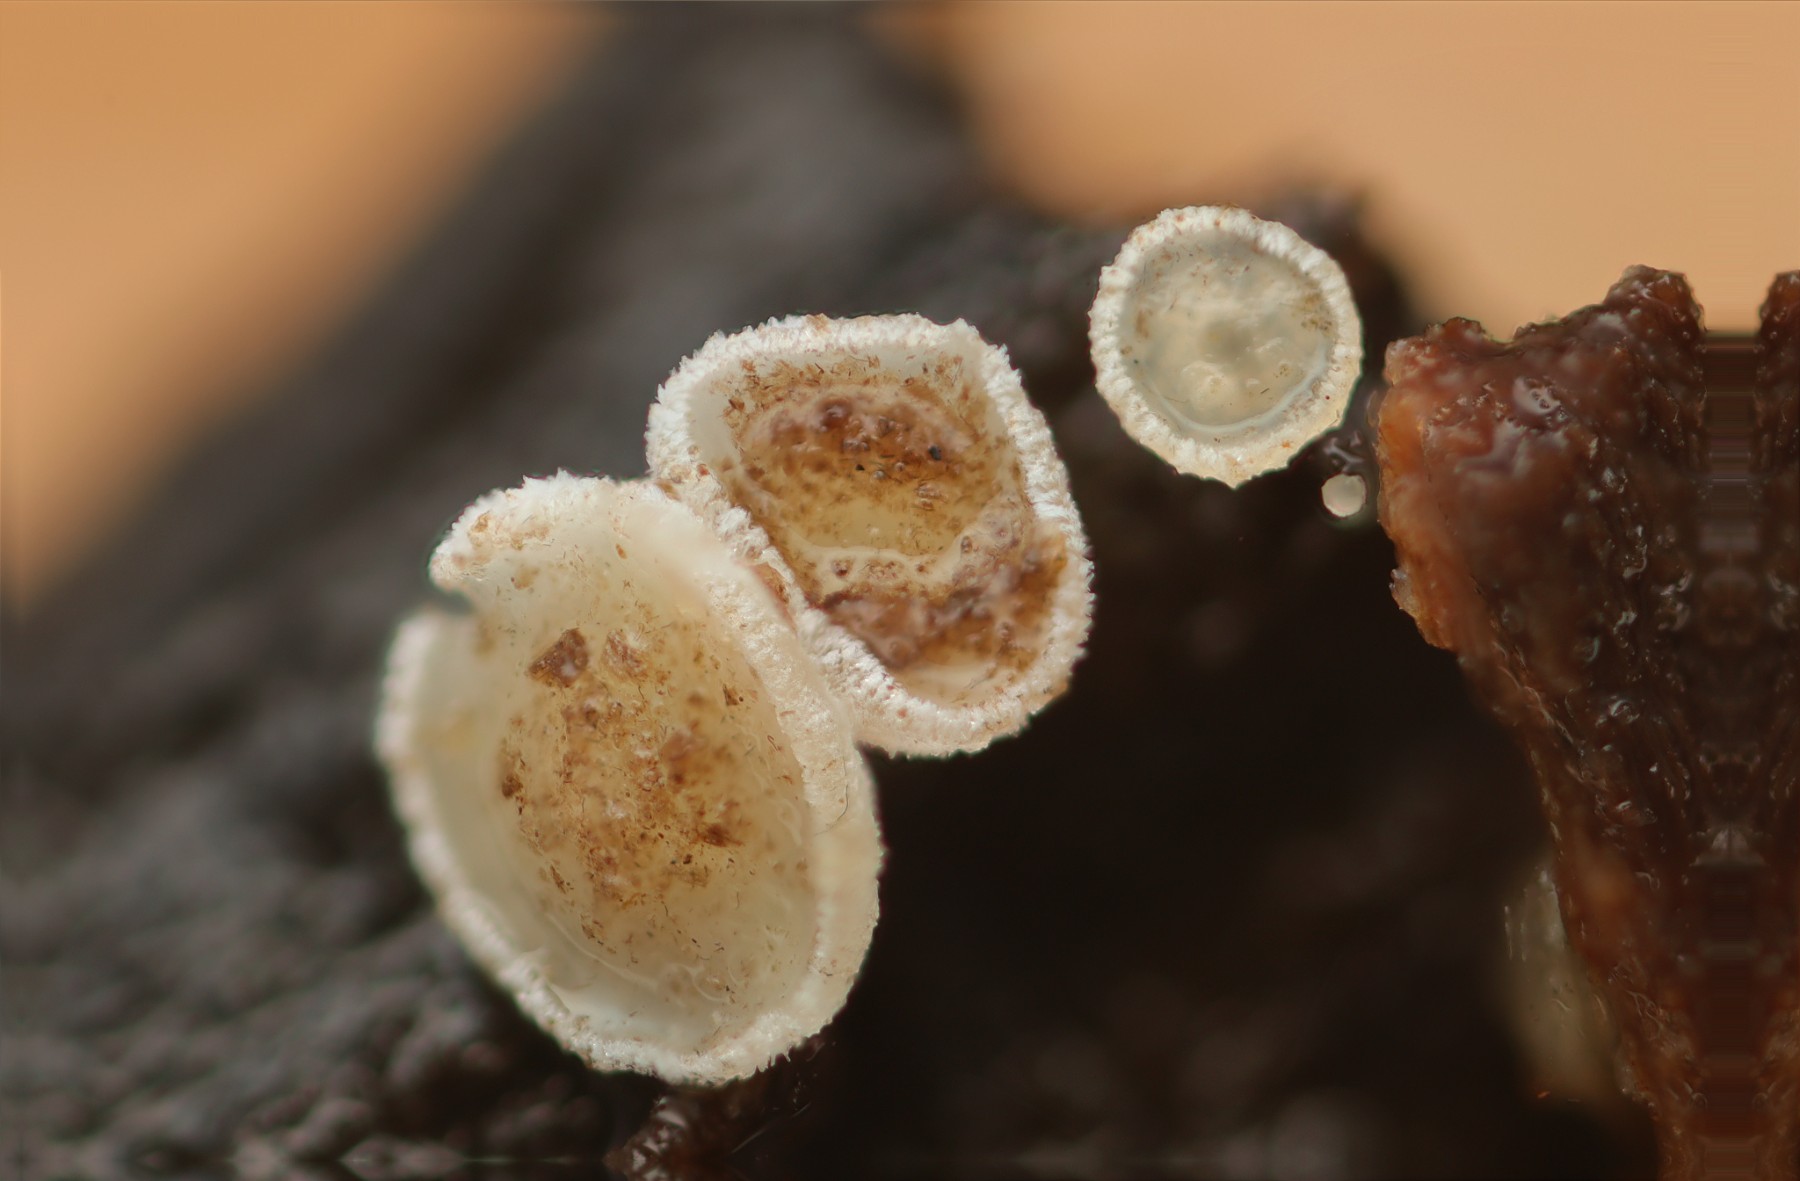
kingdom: Fungi
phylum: Ascomycota
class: Leotiomycetes
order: Helotiales
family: Hyaloscyphaceae
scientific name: Hyaloscyphaceae
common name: frynseskivefamilien
